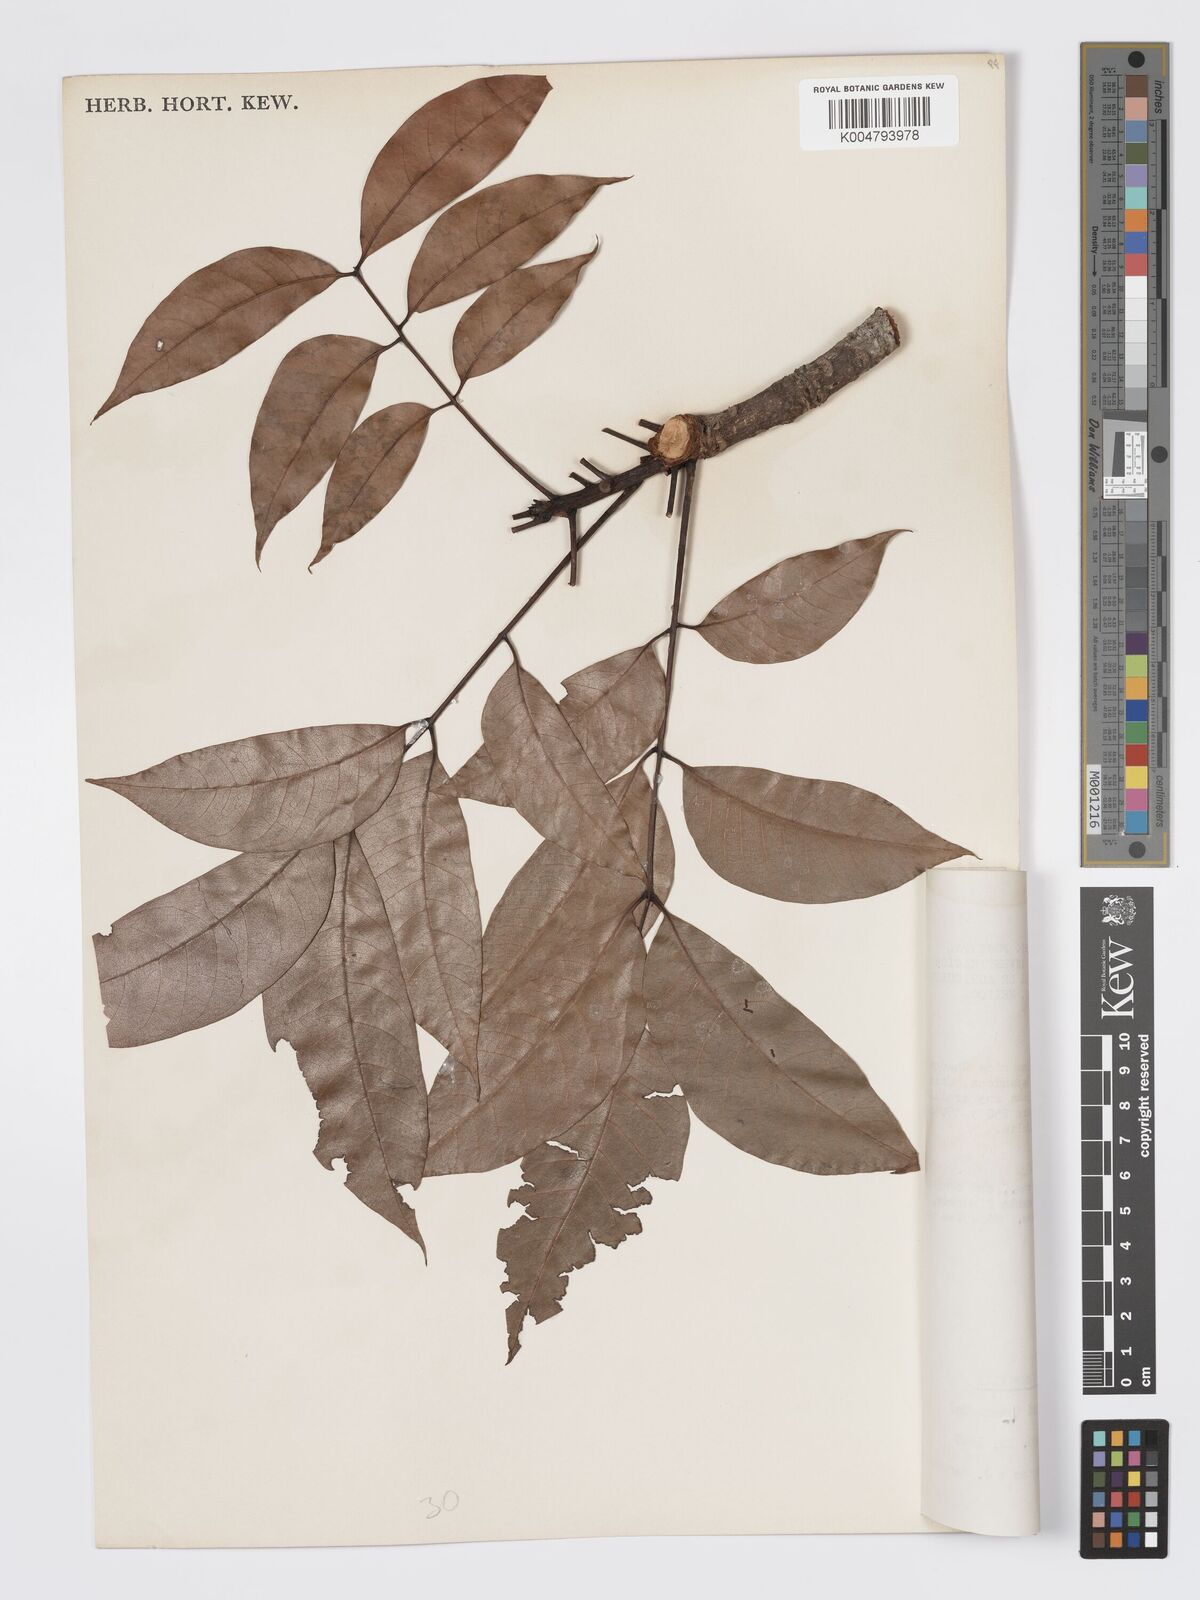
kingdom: Plantae
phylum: Tracheophyta
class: Magnoliopsida
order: Sapindales
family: Meliaceae
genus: Swietenia
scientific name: Swietenia macrophylla
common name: Honduras mahogany
